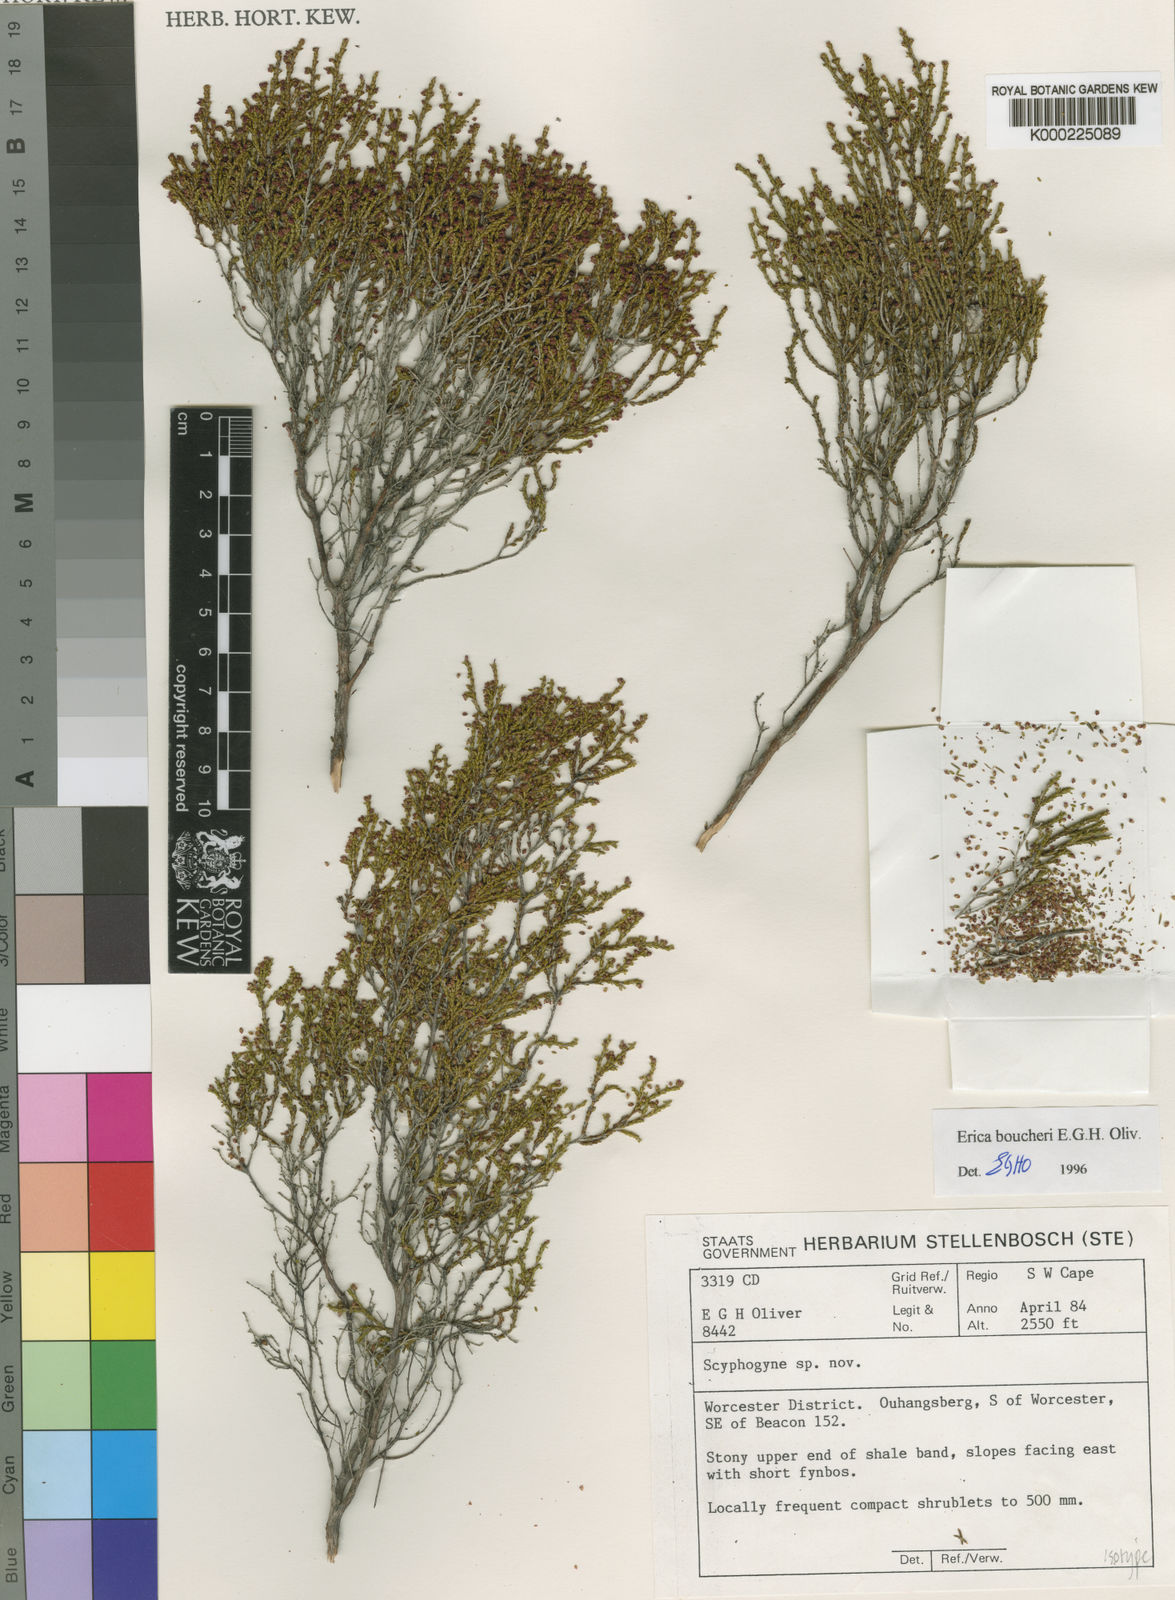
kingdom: Plantae
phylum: Tracheophyta
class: Magnoliopsida
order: Ericales
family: Ericaceae
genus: Erica
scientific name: Erica boucheri
